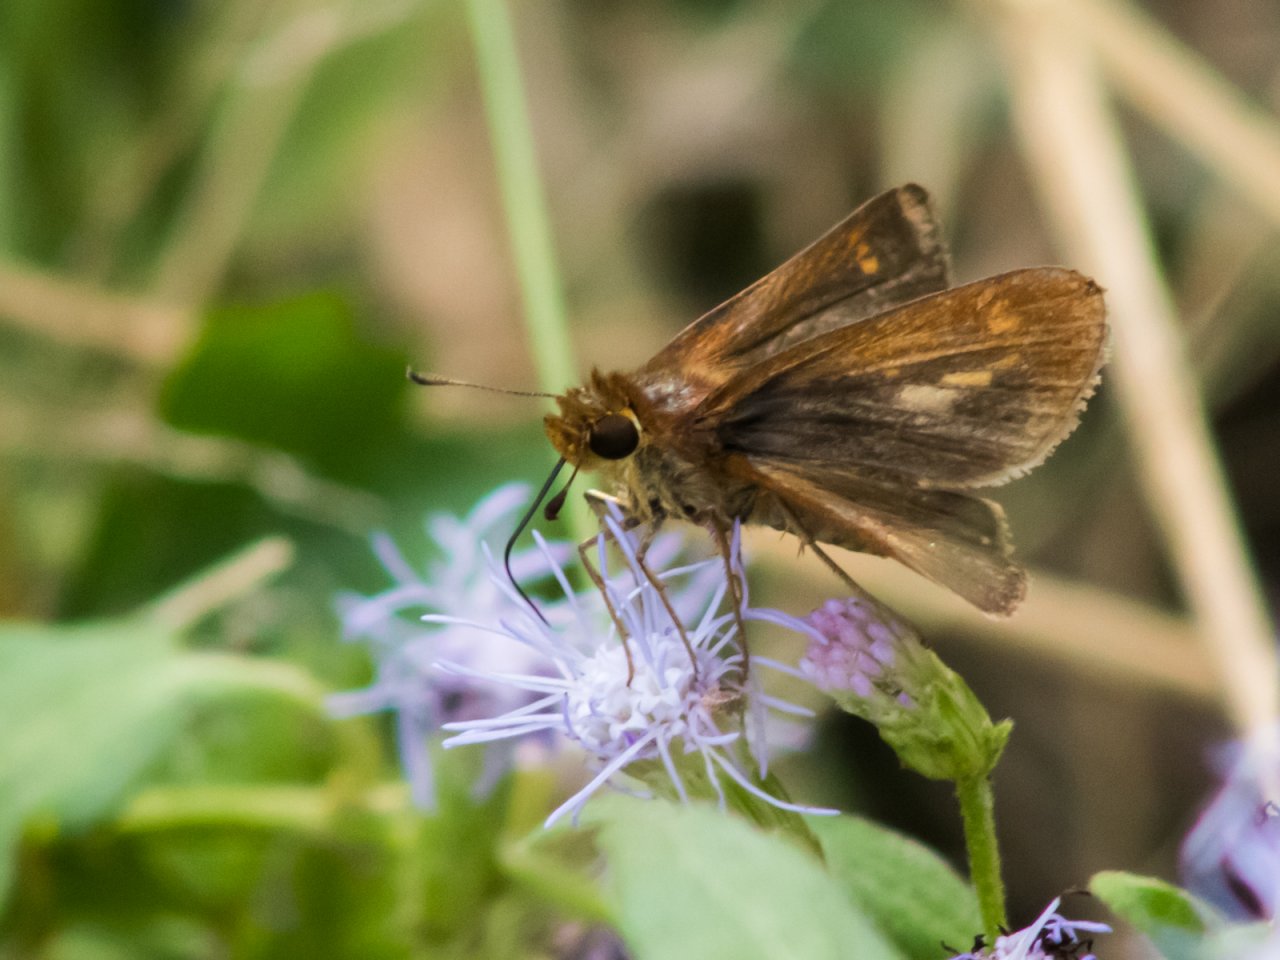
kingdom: Animalia
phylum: Arthropoda
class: Insecta
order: Lepidoptera
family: Hesperiidae
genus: Polites
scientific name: Polites vibex
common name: Whirlabout
